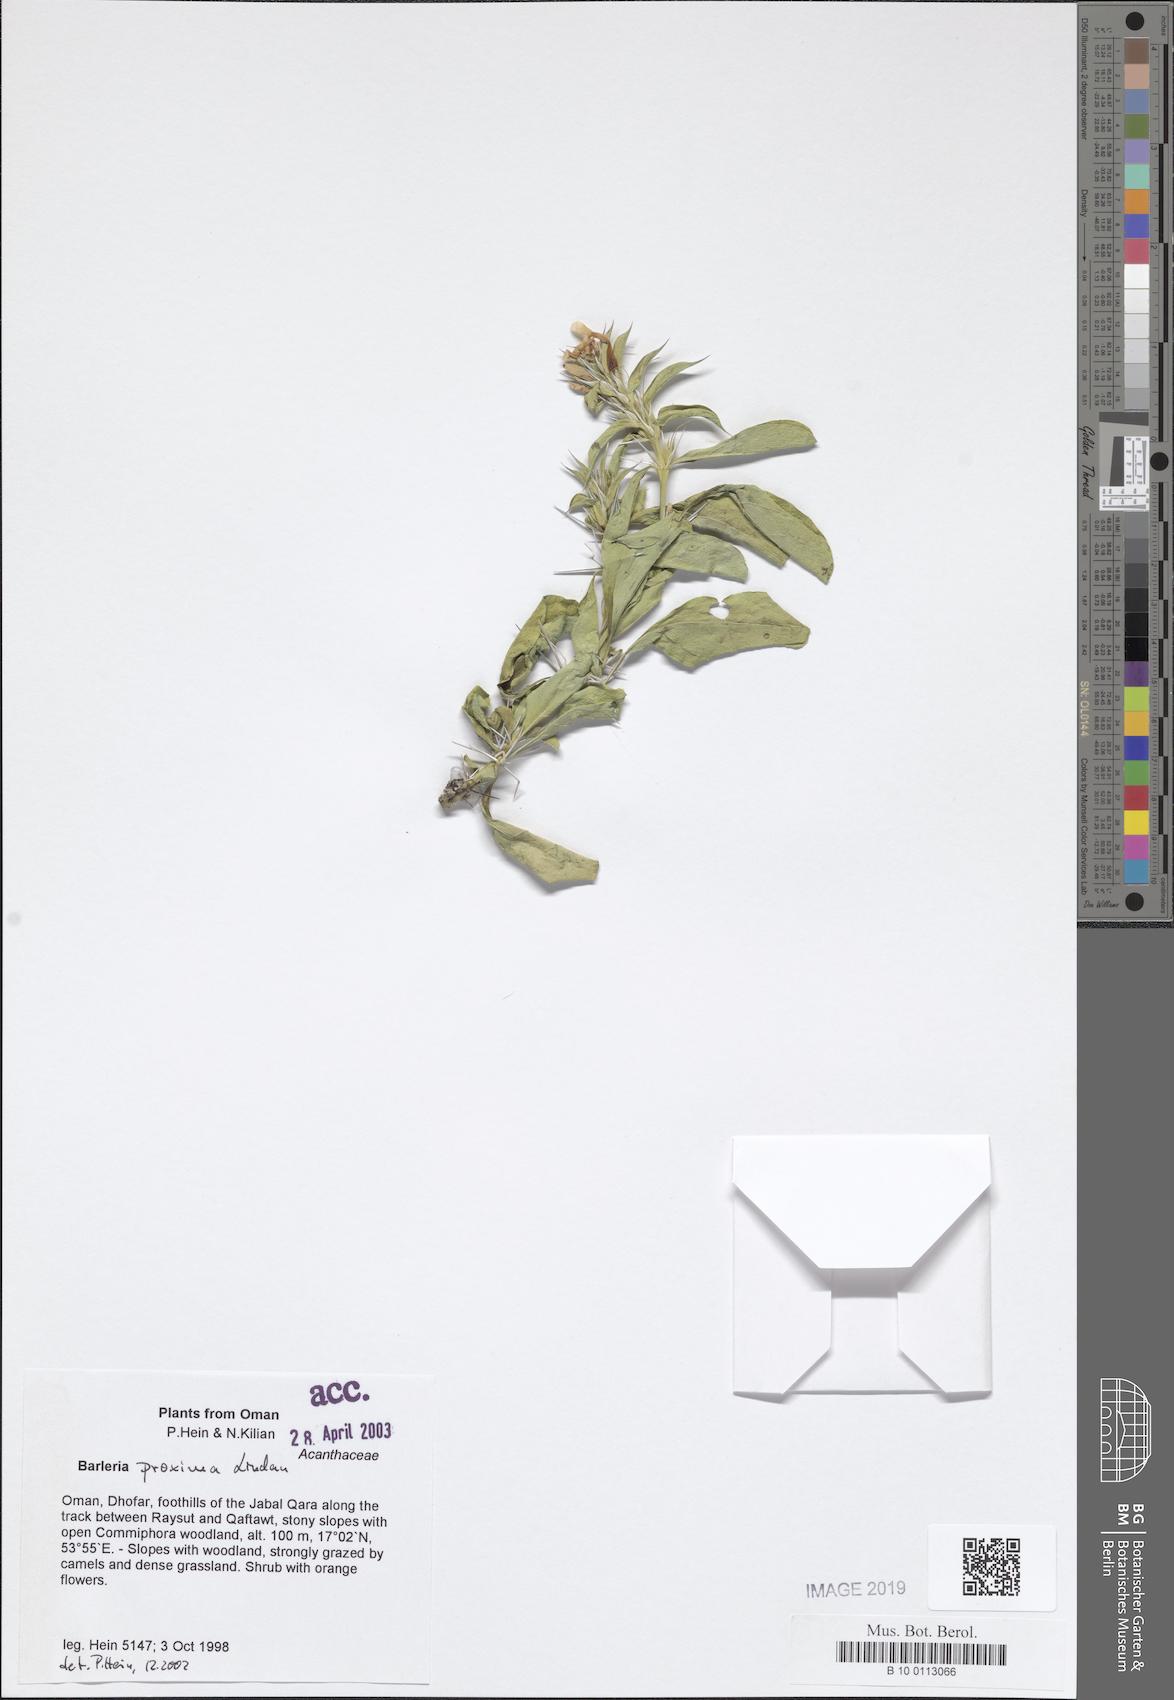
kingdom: Plantae
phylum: Tracheophyta
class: Magnoliopsida
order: Lamiales
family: Acanthaceae
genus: Barleria
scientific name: Barleria proxima
